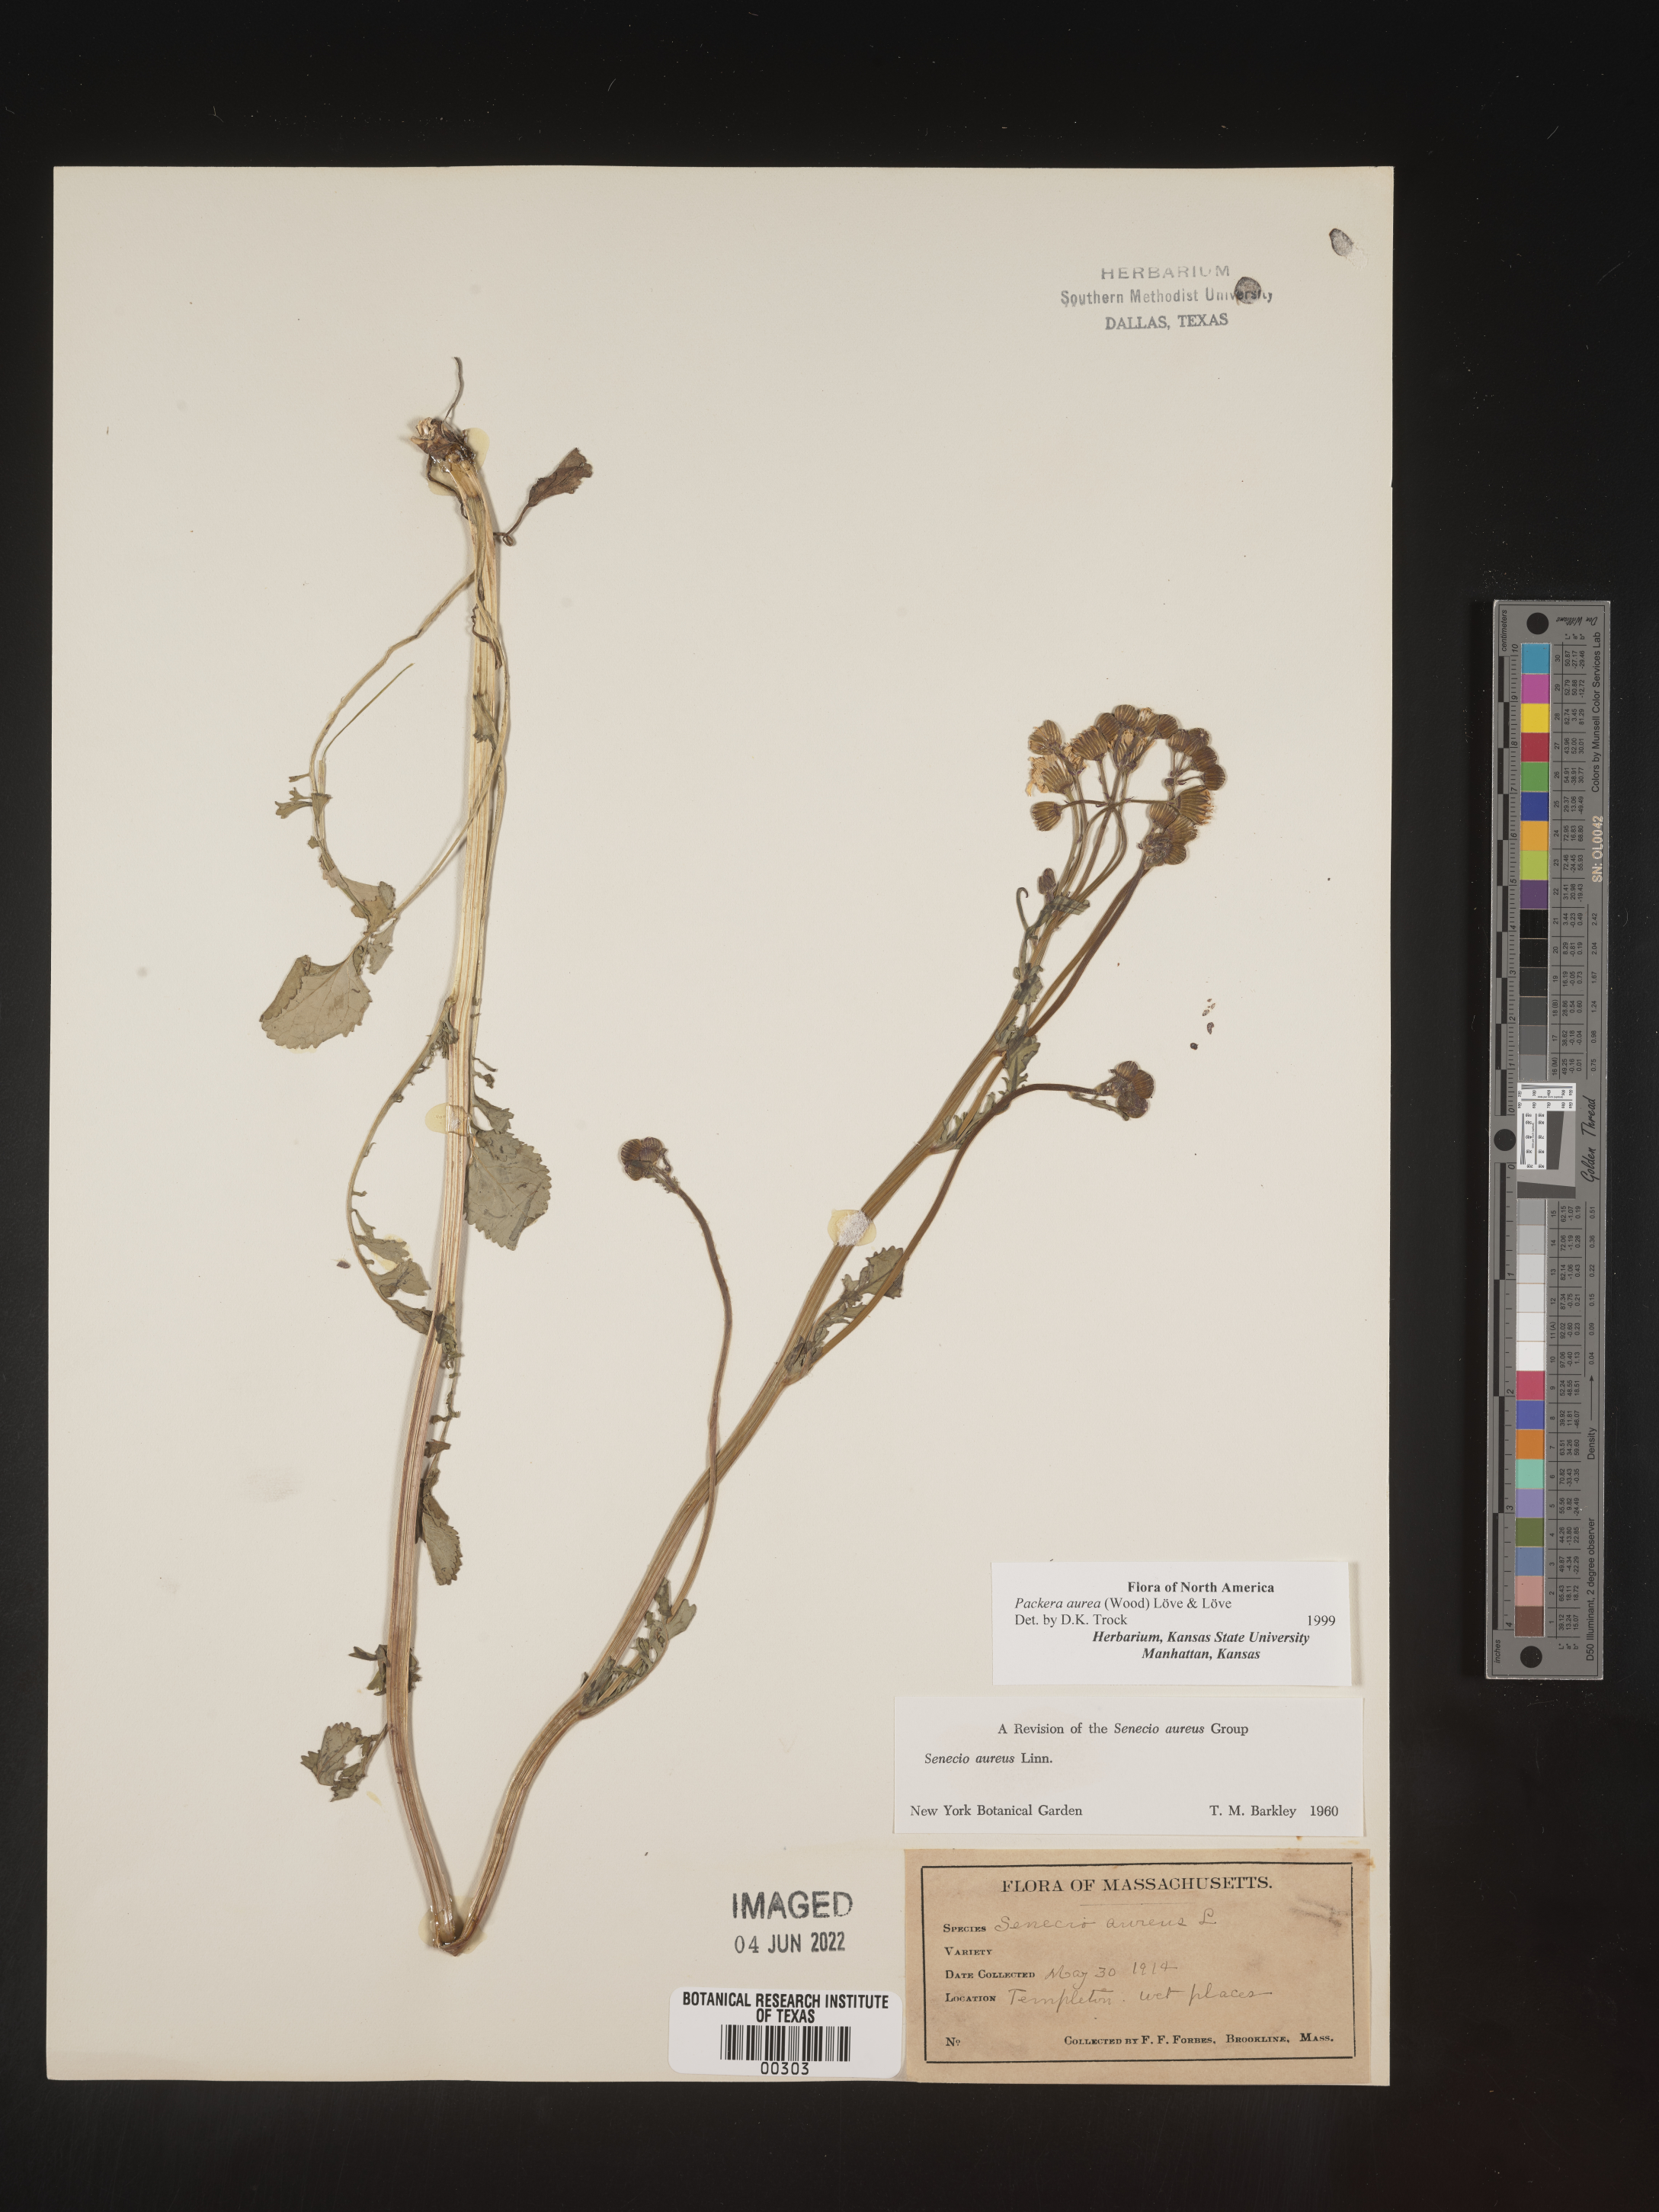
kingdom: Plantae
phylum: Tracheophyta
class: Magnoliopsida
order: Asterales
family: Asteraceae
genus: Packera
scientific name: Packera aurea
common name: Golden groundsel
